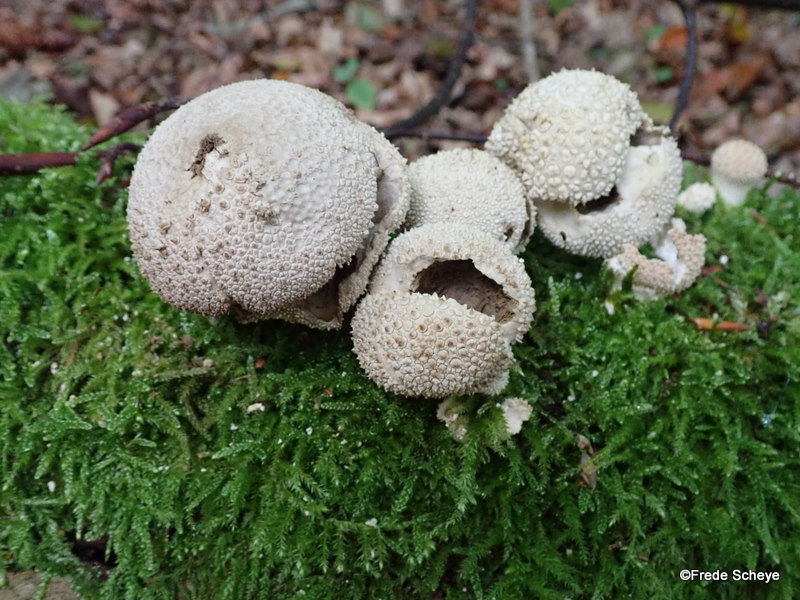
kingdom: Fungi
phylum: Basidiomycota
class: Agaricomycetes
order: Agaricales
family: Lycoperdaceae
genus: Lycoperdon
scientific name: Lycoperdon perlatum
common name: krystal-støvbold
